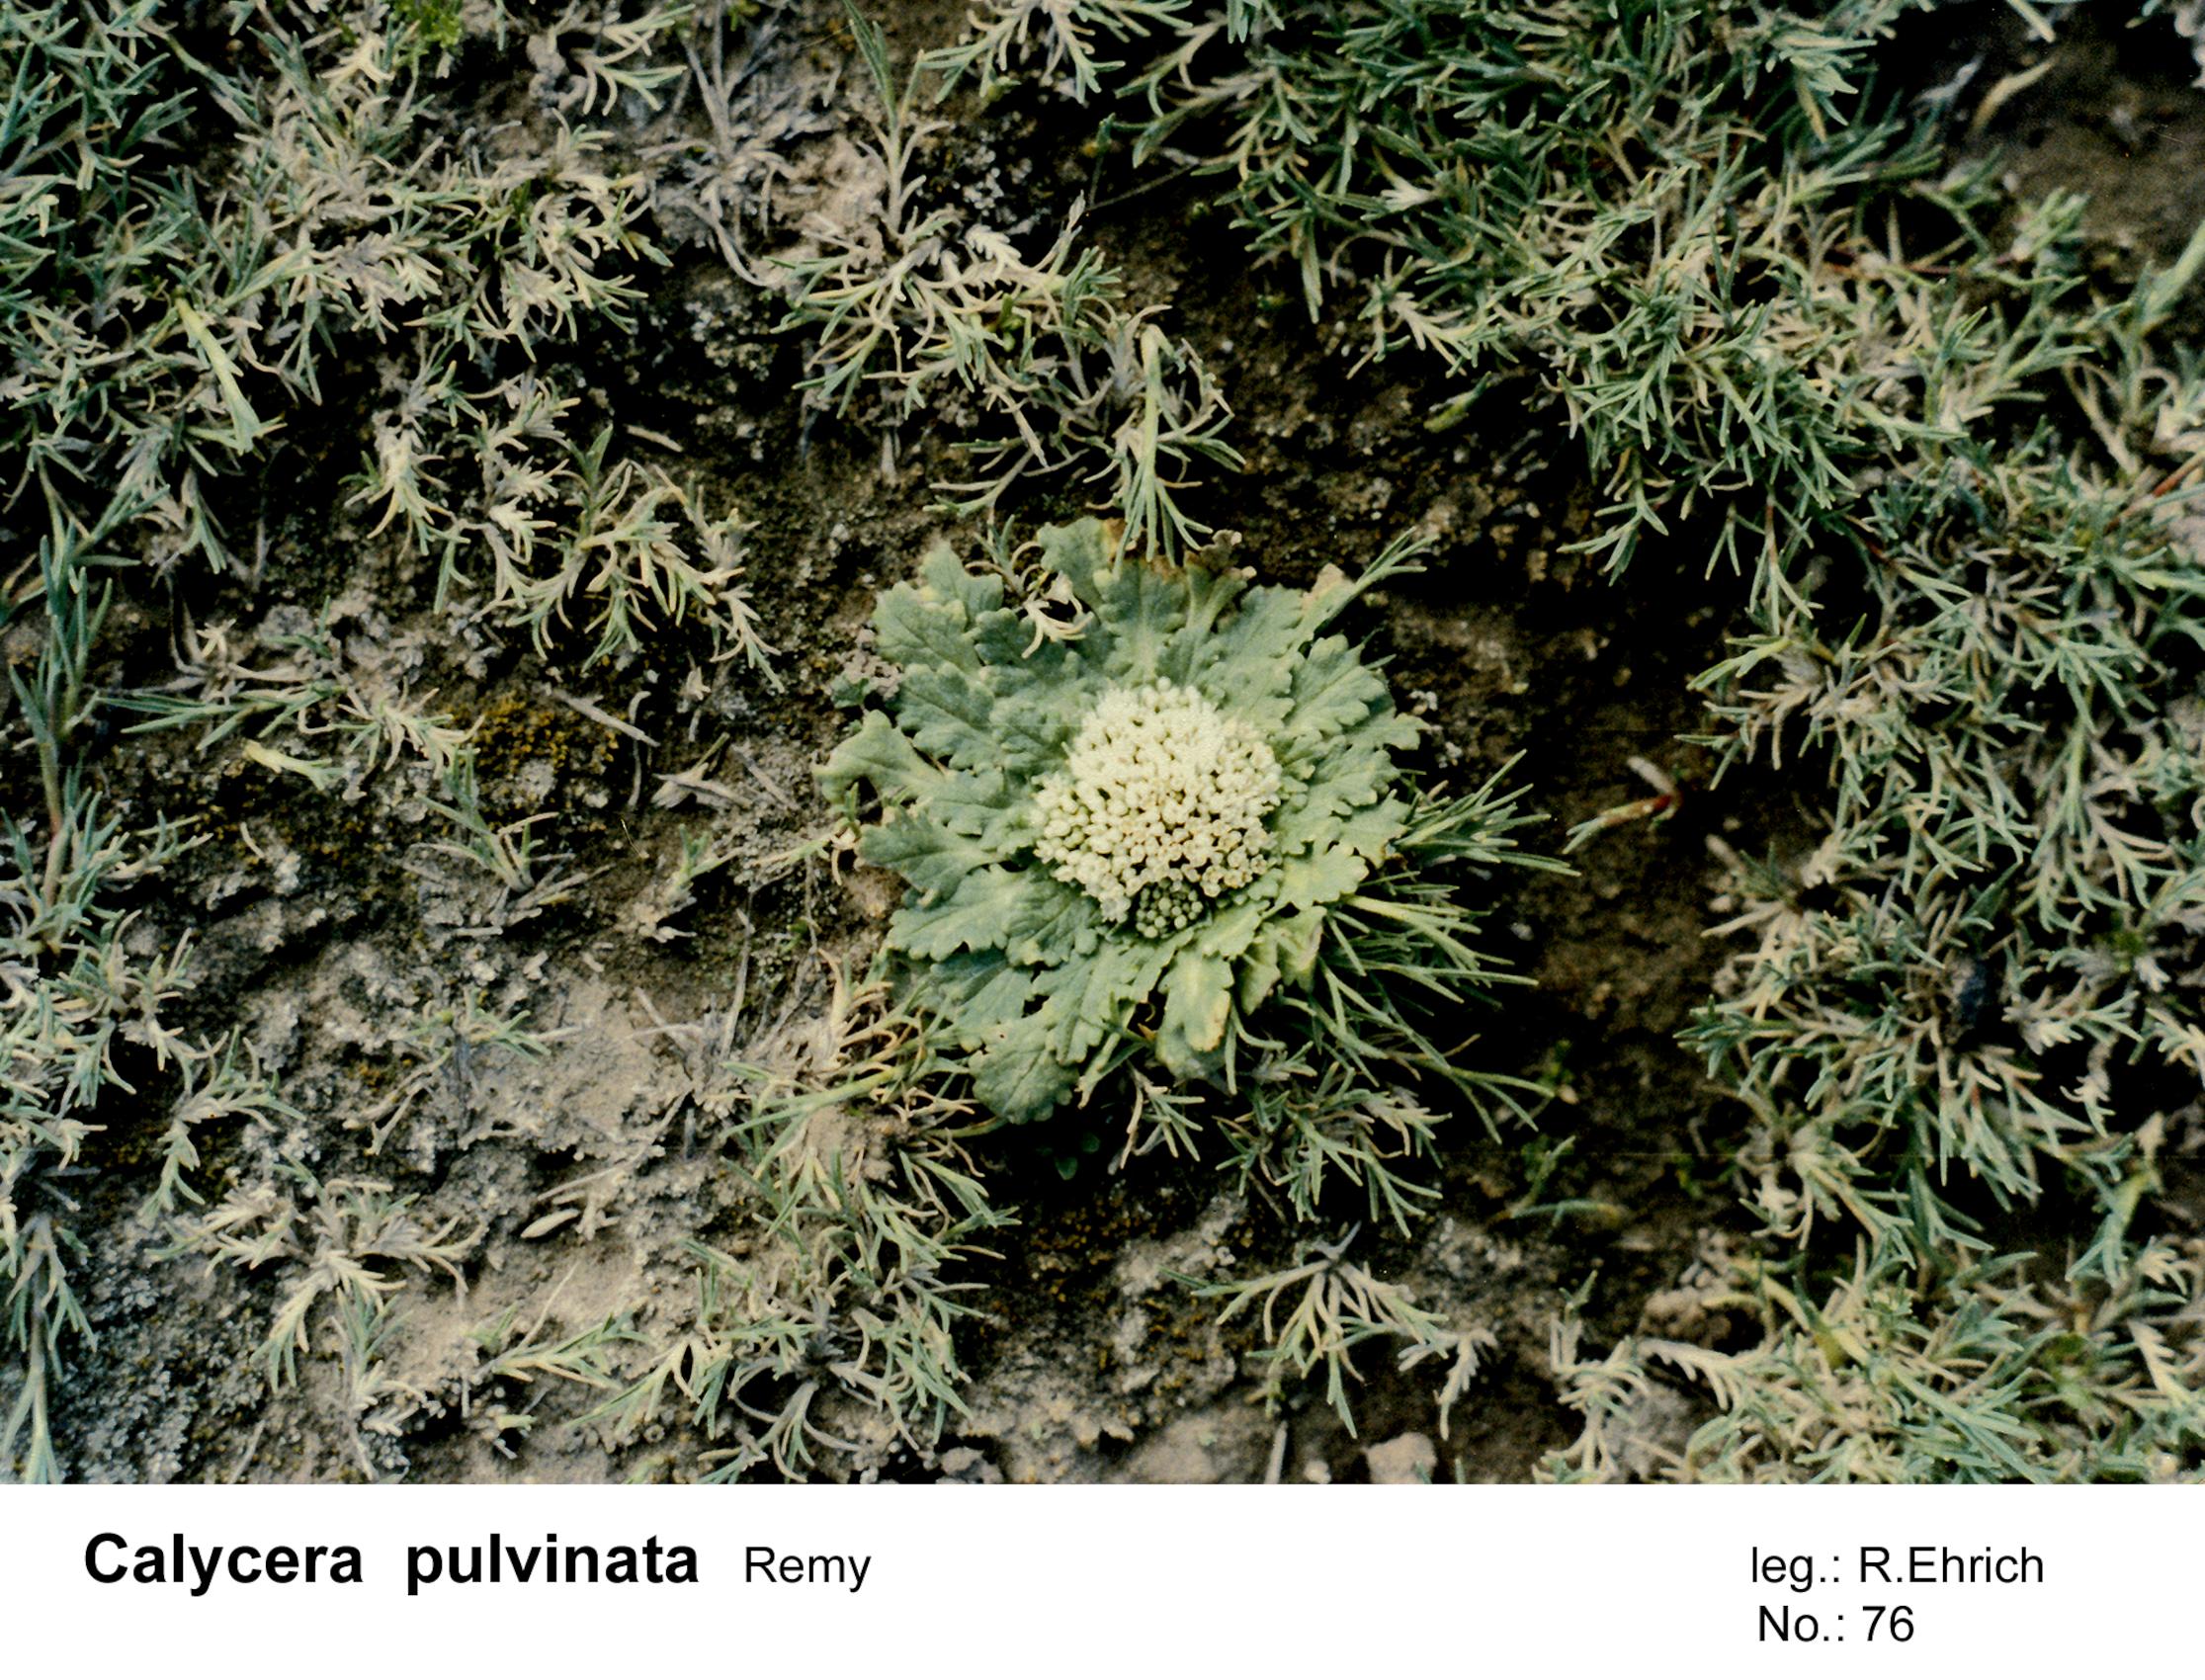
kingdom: Plantae
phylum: Tracheophyta
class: Magnoliopsida
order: Asterales
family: Calyceraceae
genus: Calycera
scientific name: Calycera pulvinata
